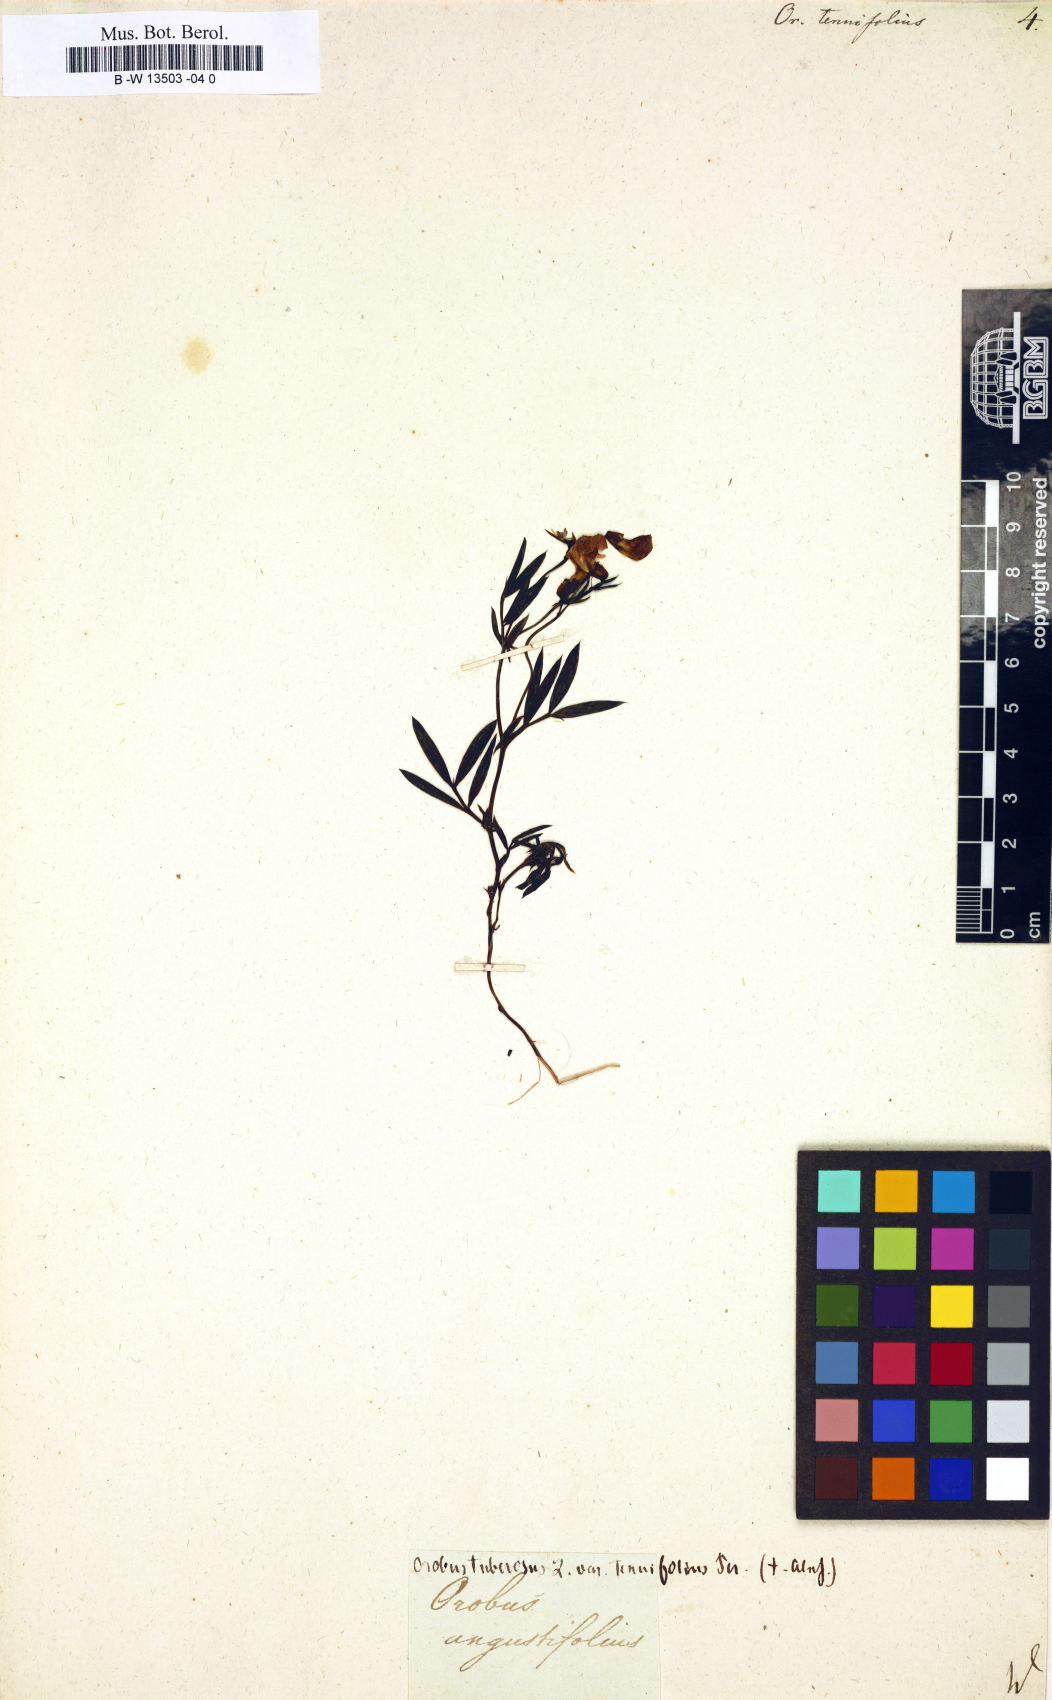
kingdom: Plantae
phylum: Tracheophyta
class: Magnoliopsida
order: Fabales
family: Fabaceae
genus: Lathyrus
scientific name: Lathyrus
